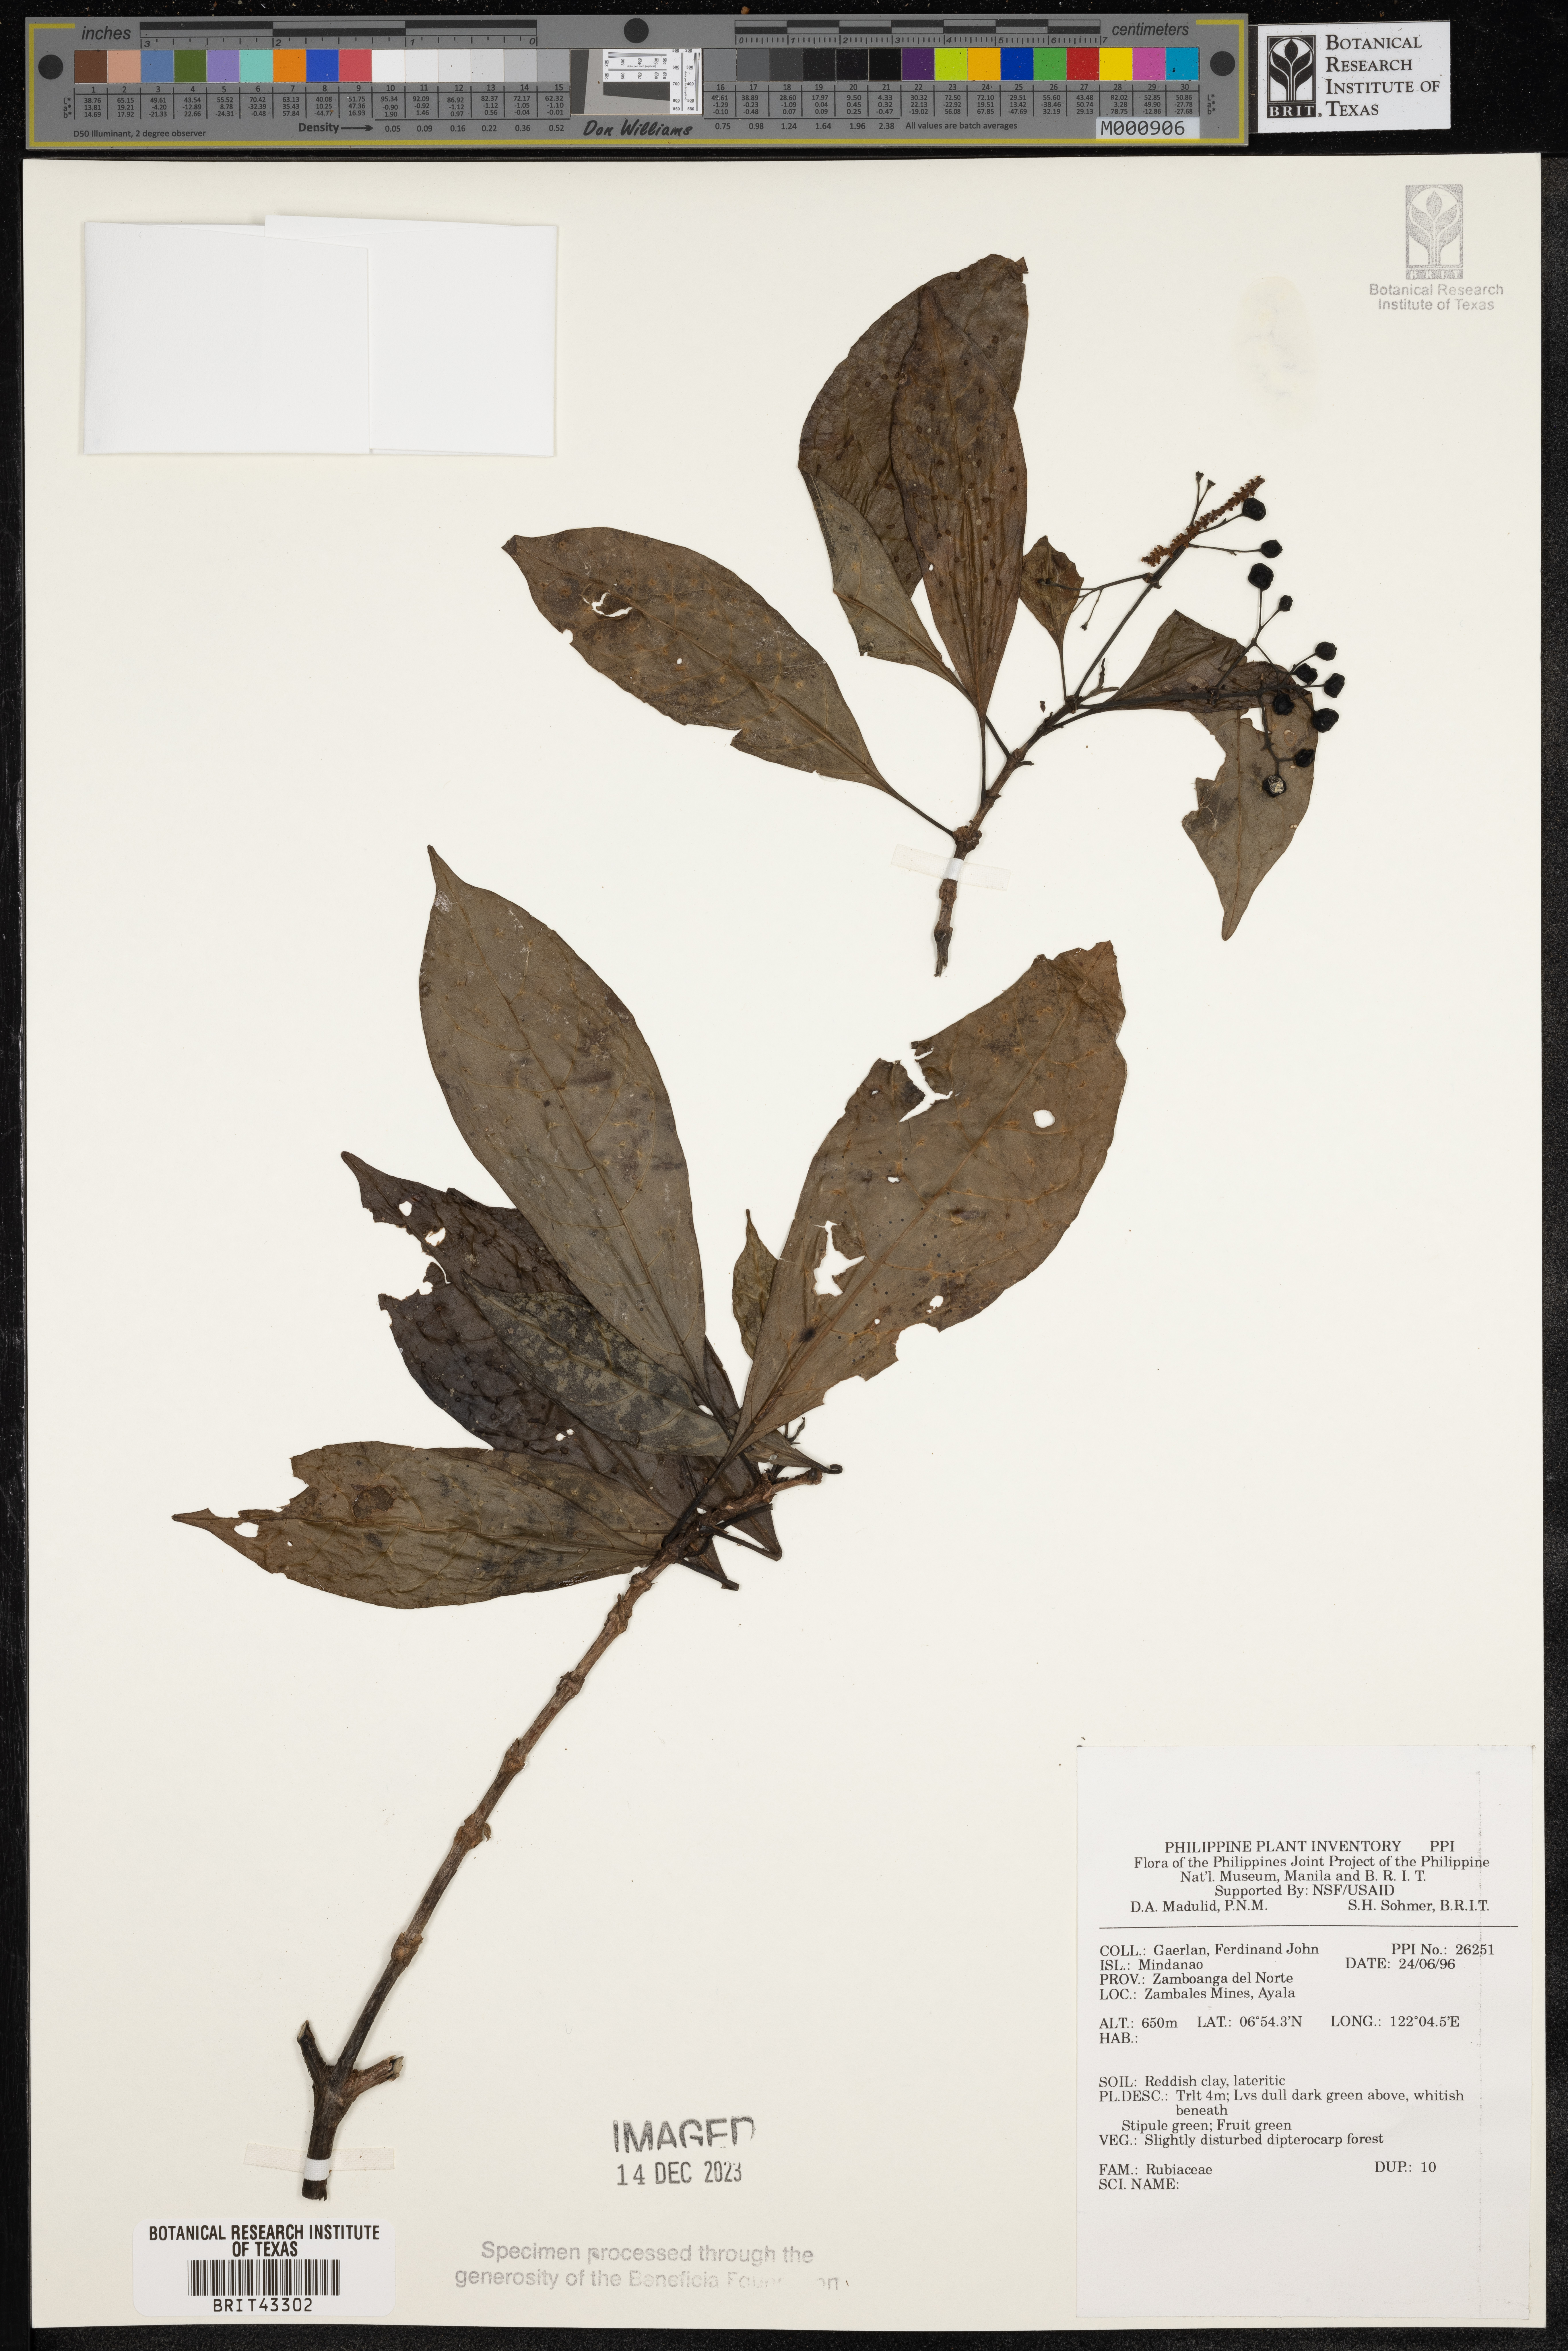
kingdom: Plantae
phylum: Tracheophyta
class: Magnoliopsida
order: Gentianales
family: Rubiaceae
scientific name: Rubiaceae
